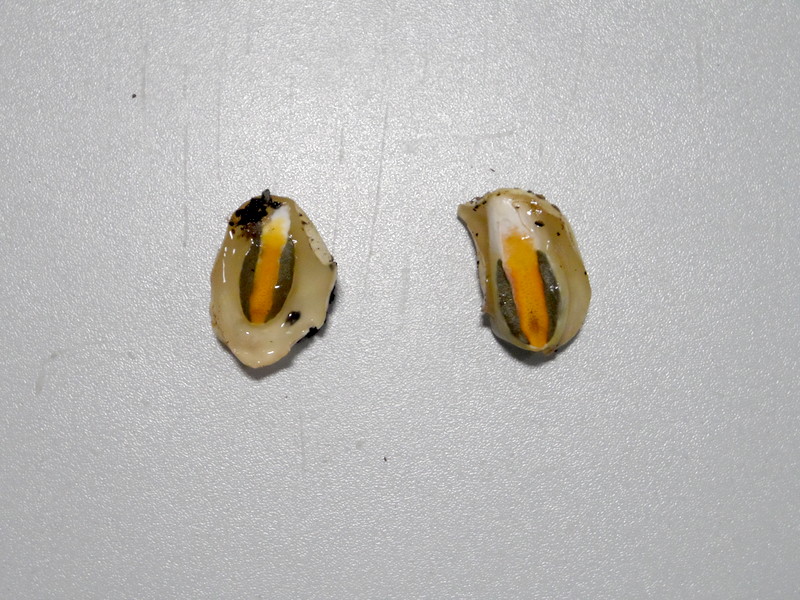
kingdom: Fungi
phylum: Basidiomycota
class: Agaricomycetes
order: Phallales
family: Phallaceae
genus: Mutinus
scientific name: Mutinus caninus
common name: Dog stinkhorn
